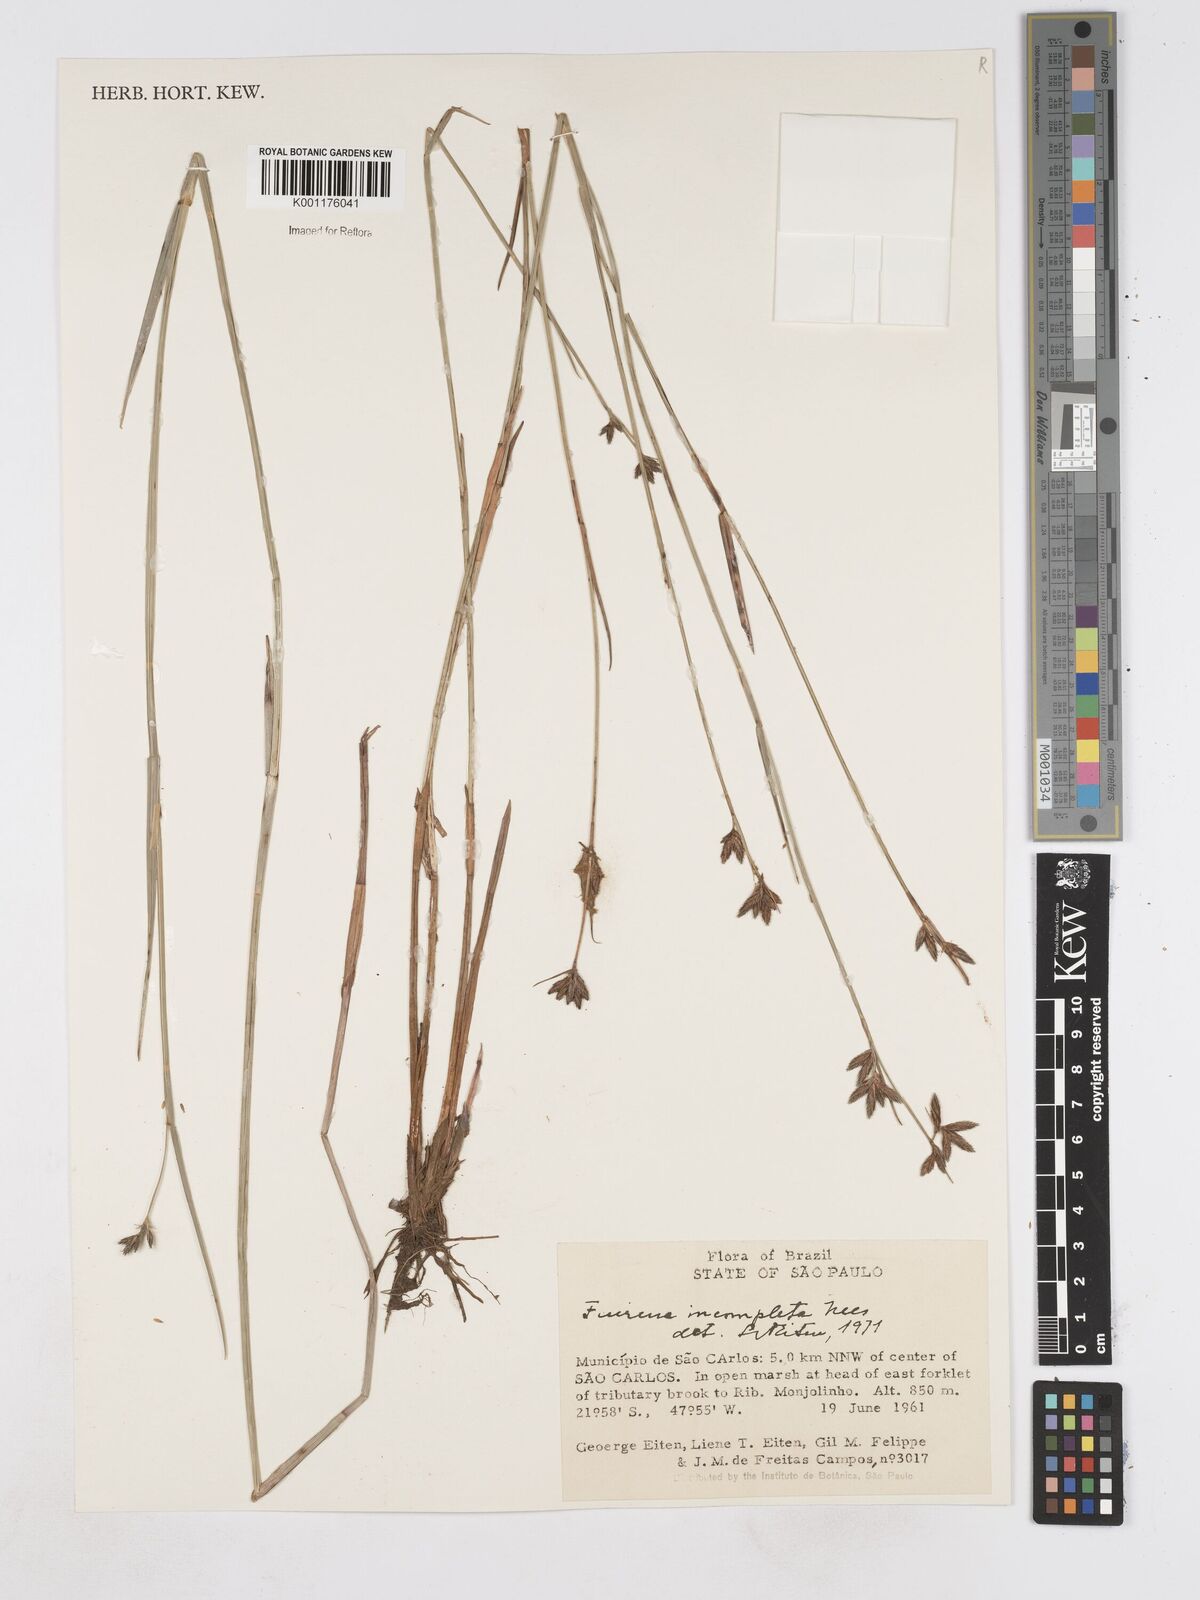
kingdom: Plantae
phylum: Tracheophyta
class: Liliopsida
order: Poales
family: Cyperaceae
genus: Fuirena
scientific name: Fuirena incompleta
